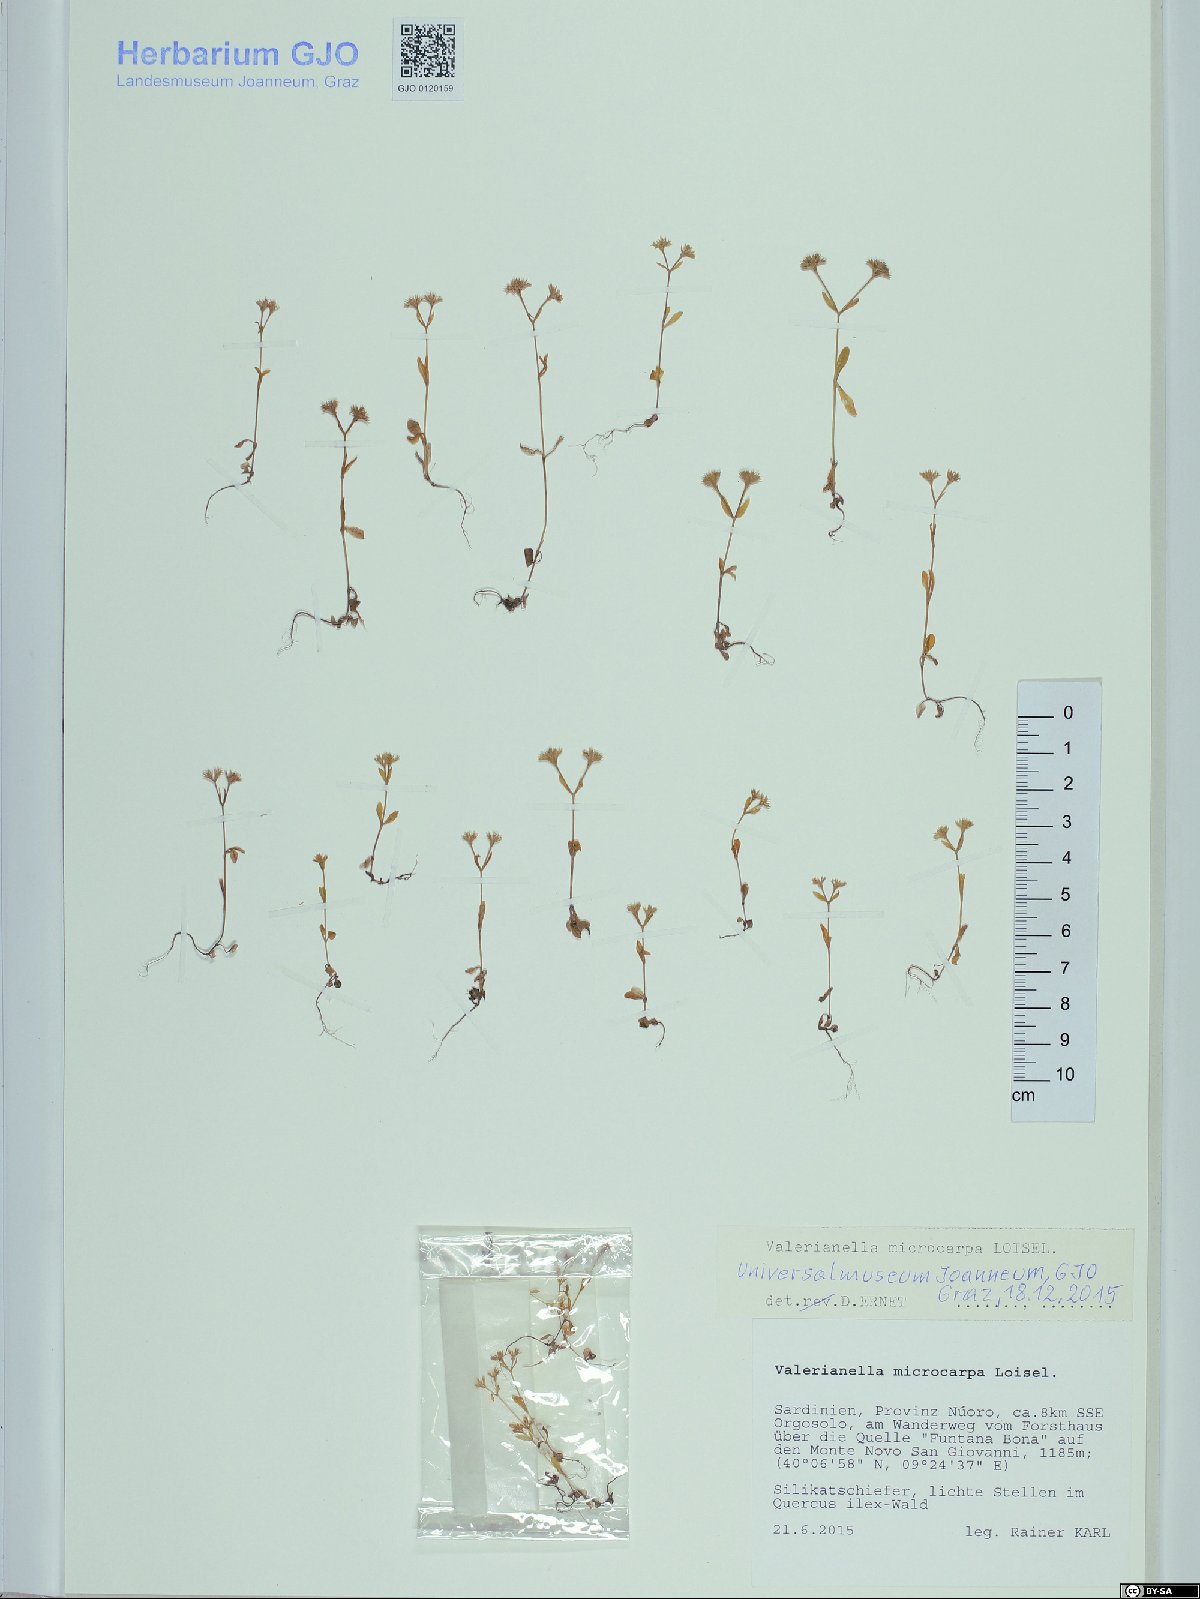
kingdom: Plantae
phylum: Tracheophyta
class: Magnoliopsida
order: Dipsacales
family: Caprifoliaceae
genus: Valerianella
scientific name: Valerianella microcarpa
